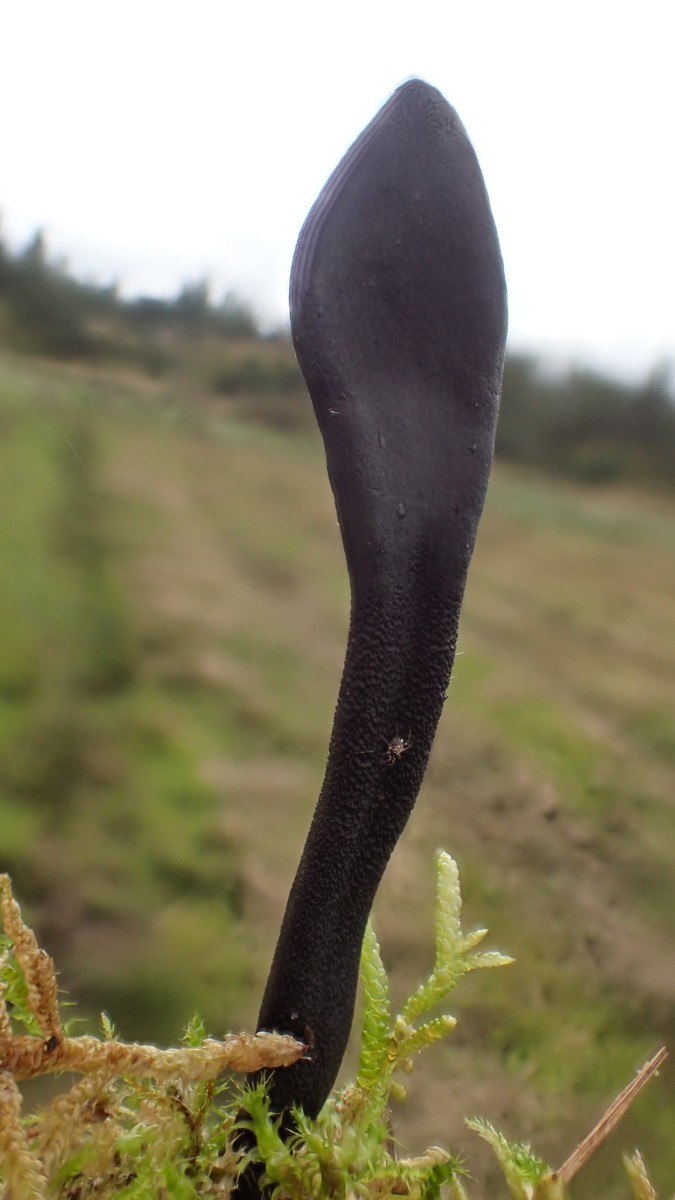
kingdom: Fungi
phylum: Ascomycota
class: Geoglossomycetes
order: Geoglossales
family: Geoglossaceae
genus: Geoglossum
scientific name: Geoglossum cookeianum
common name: bred jordtunge
